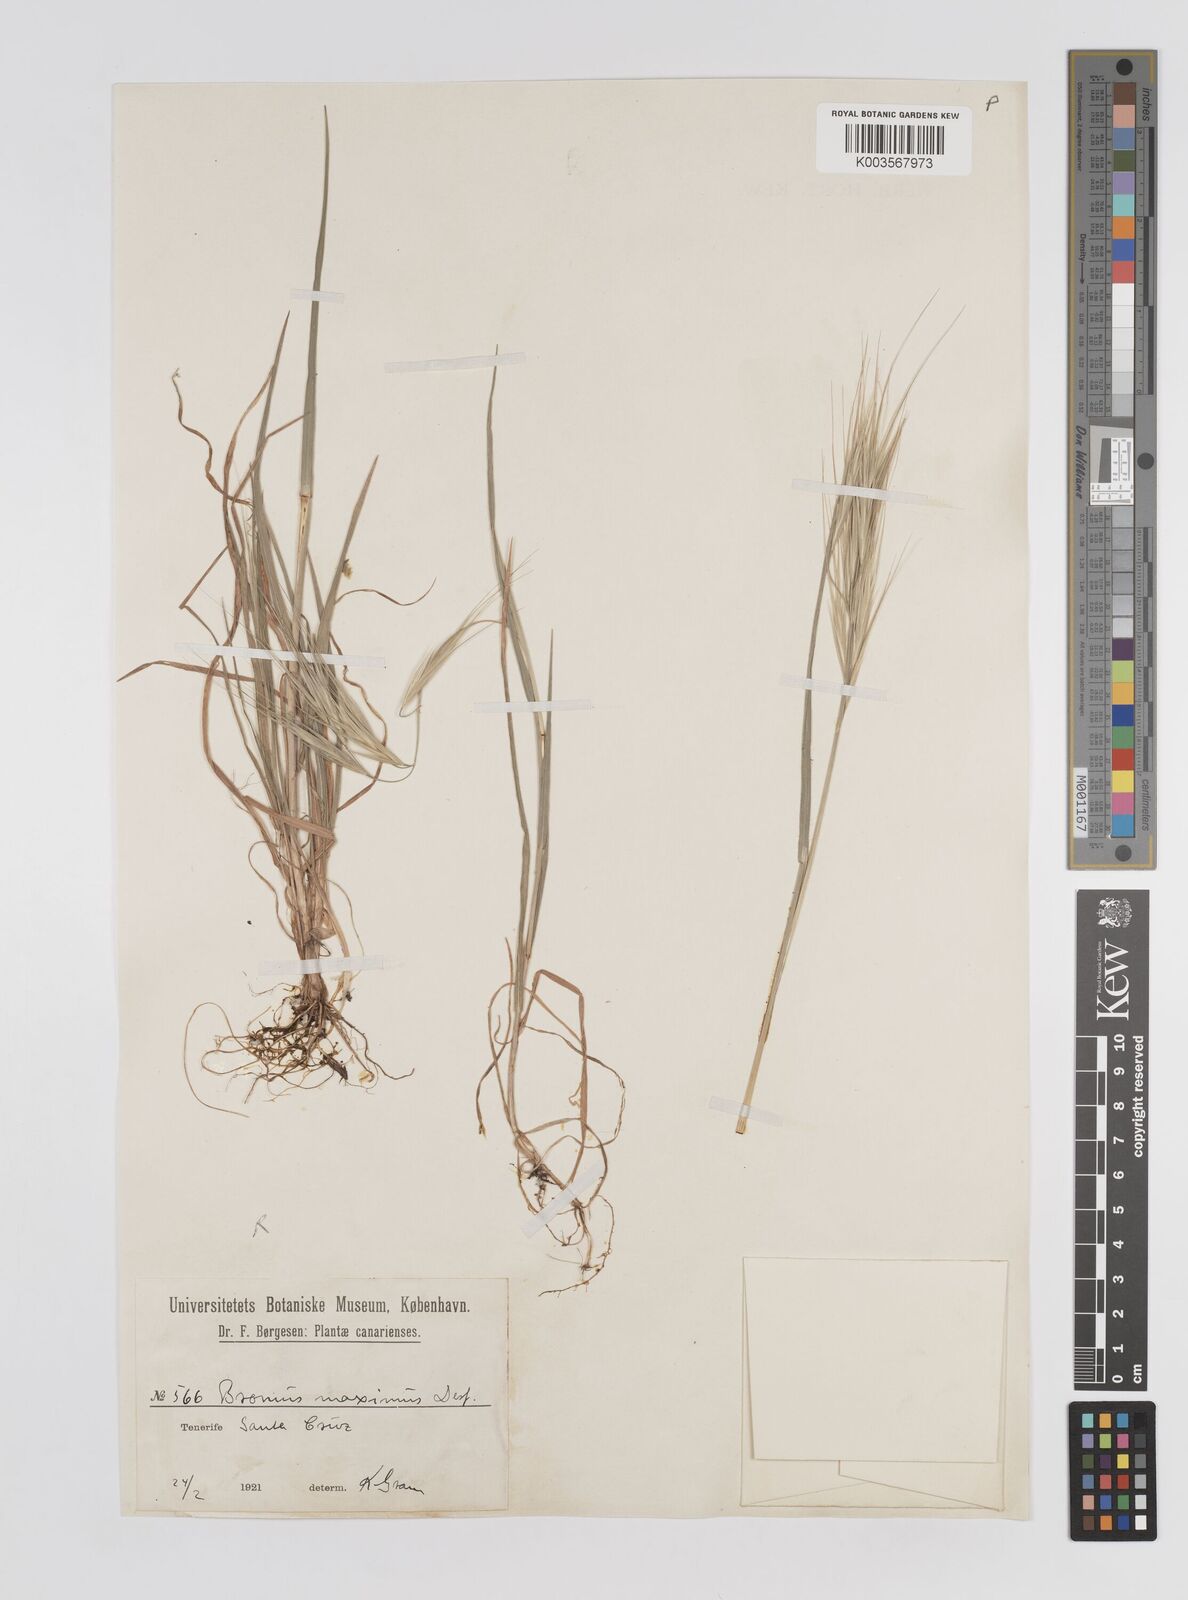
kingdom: Plantae
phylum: Tracheophyta
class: Liliopsida
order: Poales
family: Poaceae
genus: Bromus
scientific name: Bromus rigidus
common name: Ripgut brome
